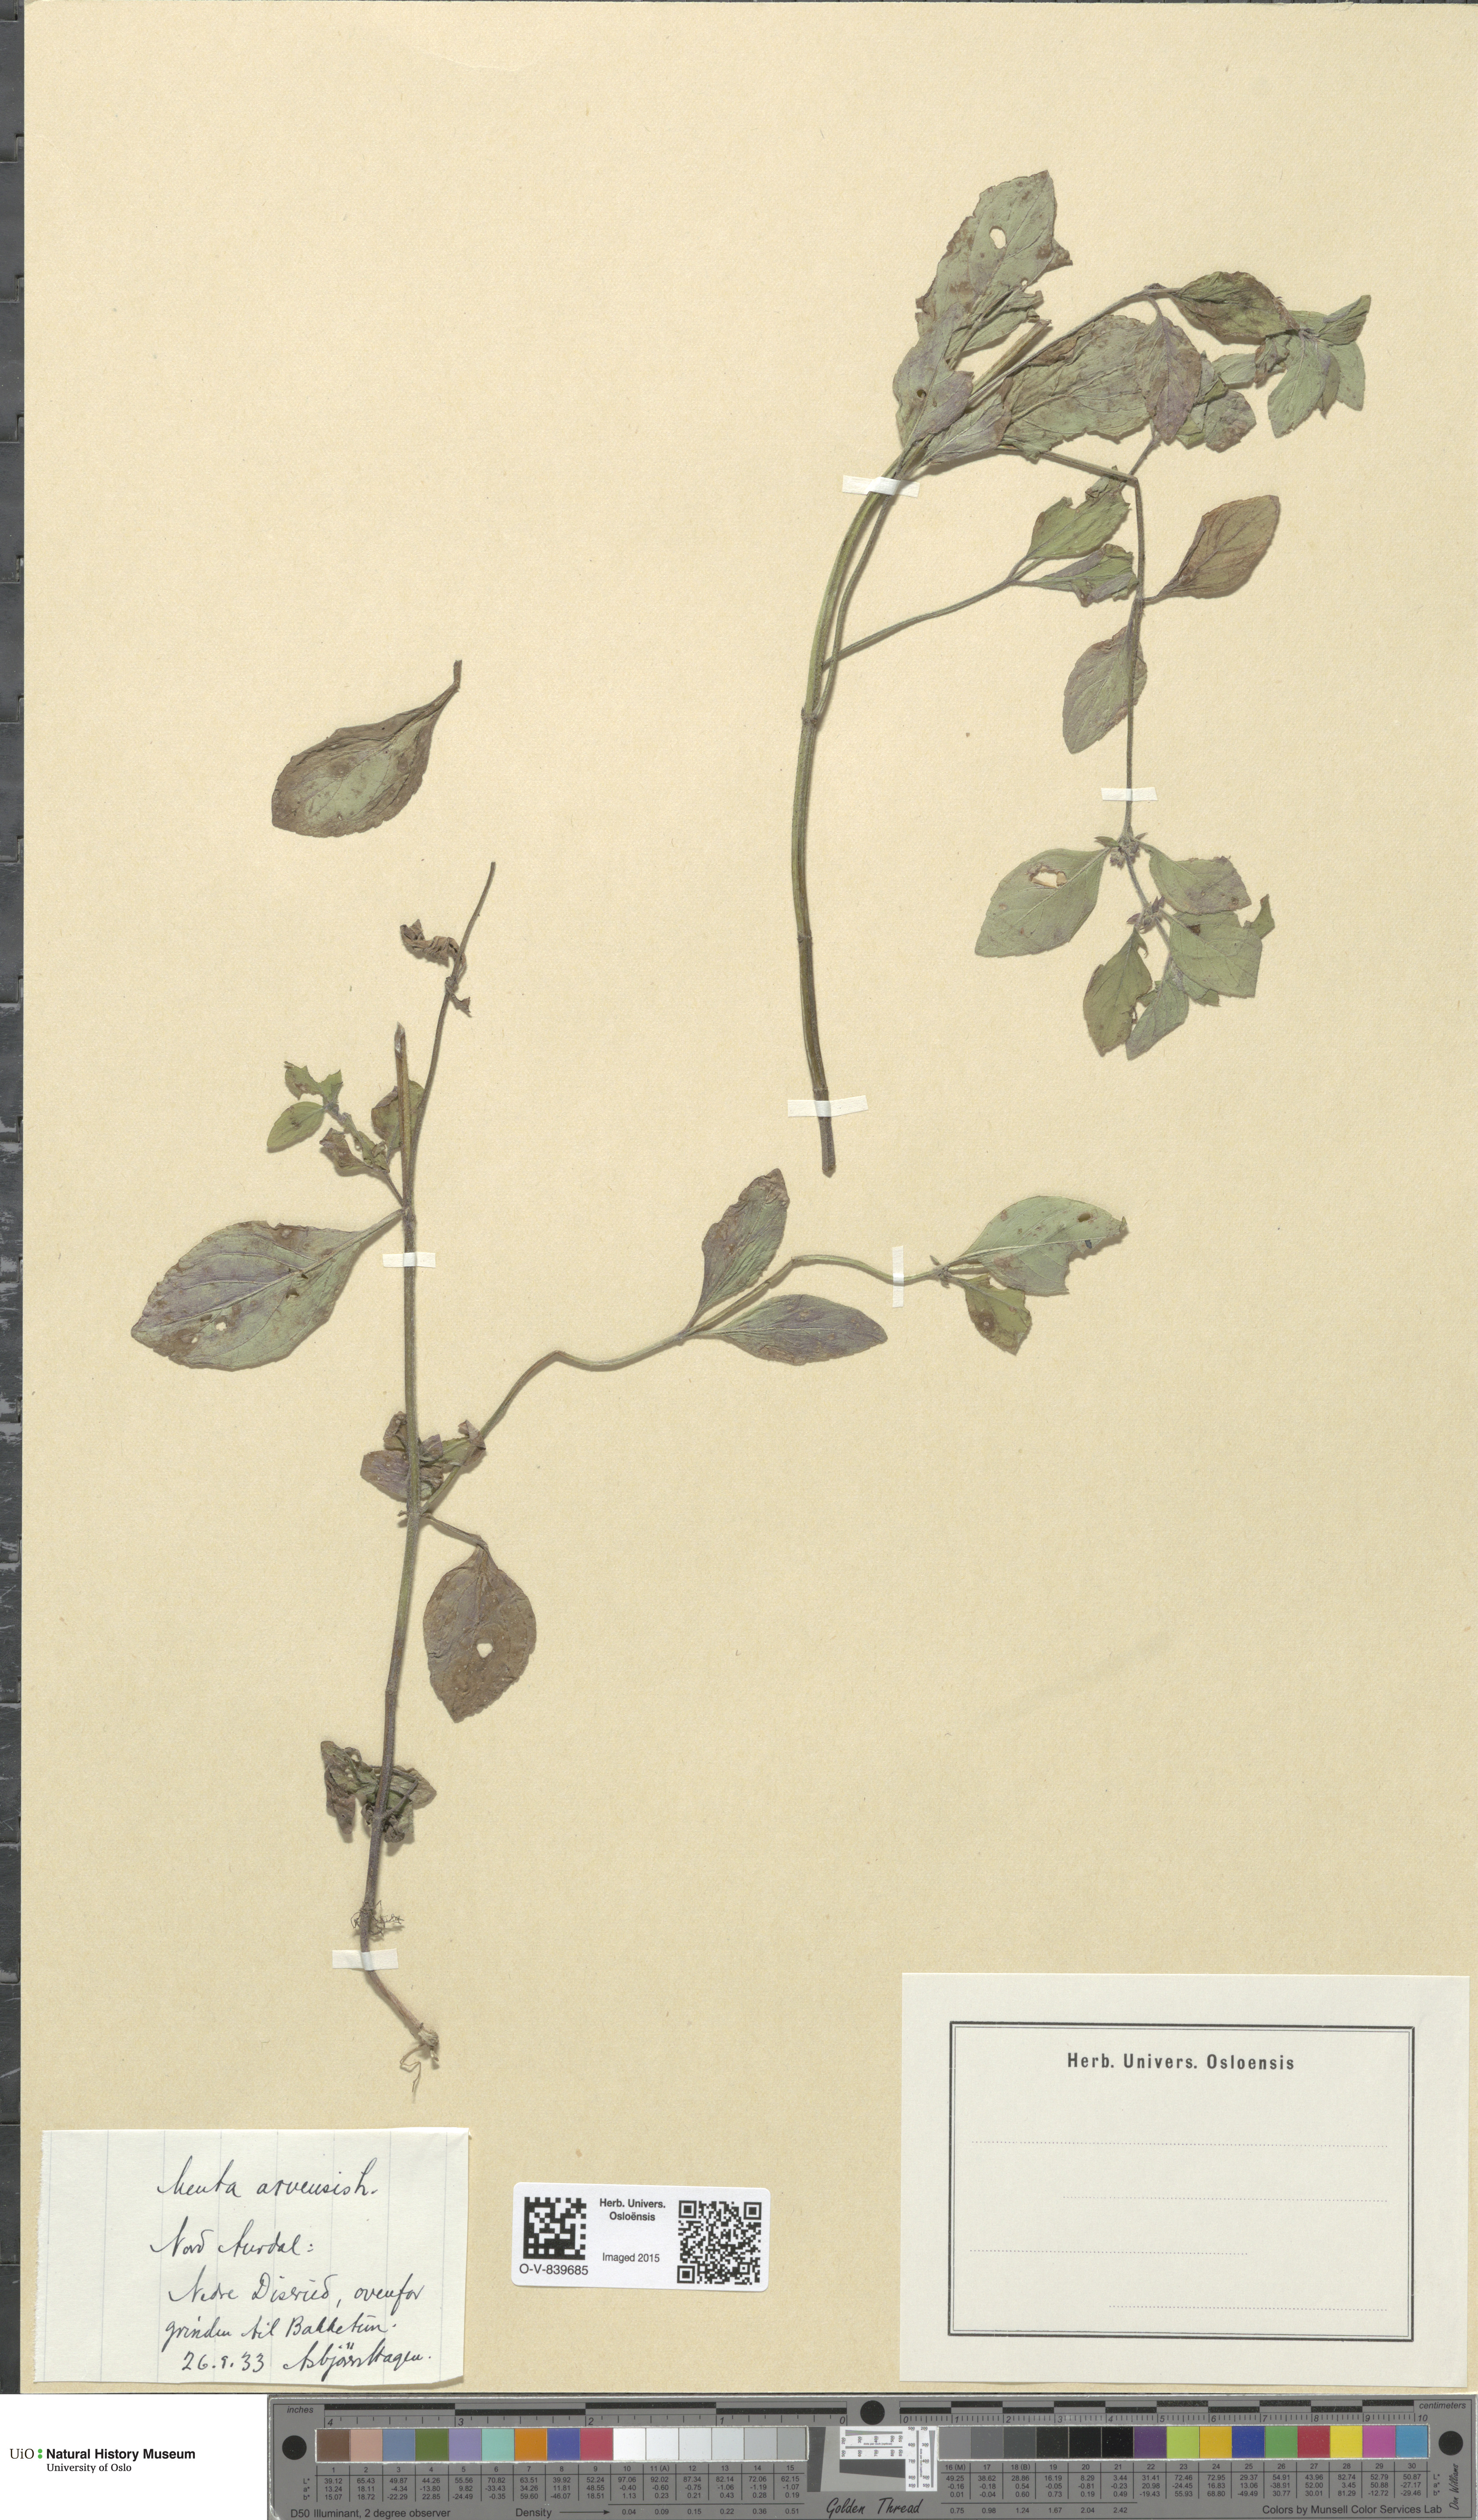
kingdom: Plantae
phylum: Tracheophyta
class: Magnoliopsida
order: Lamiales
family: Lamiaceae
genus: Mentha
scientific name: Mentha arvensis
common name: Corn mint
